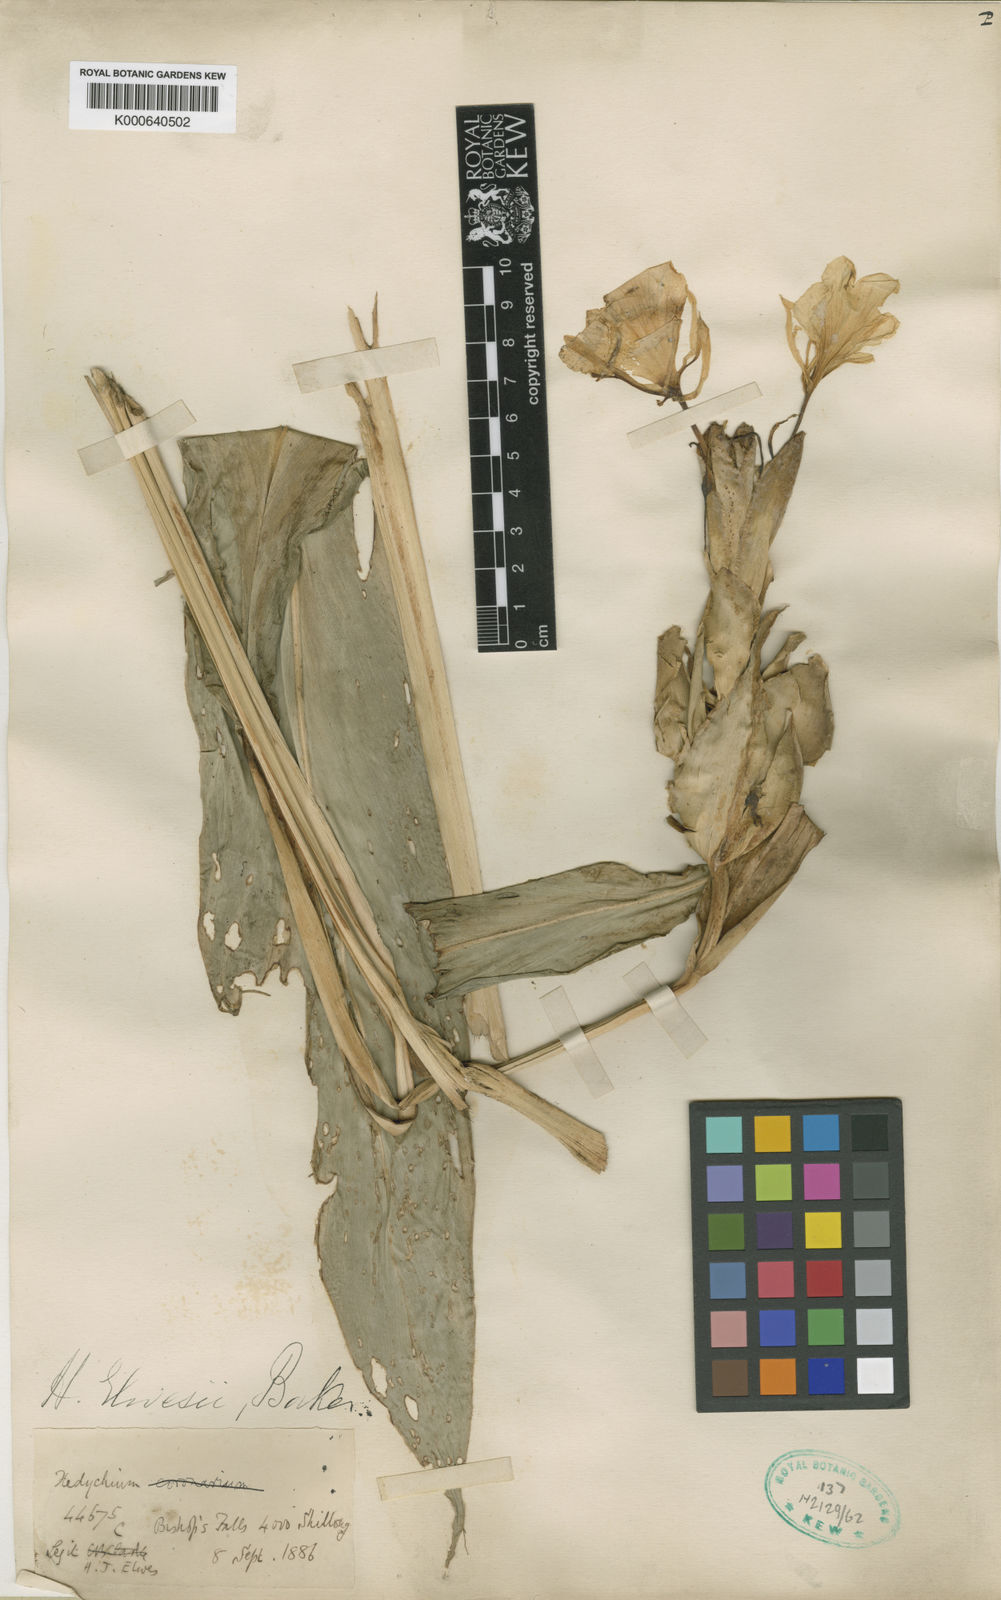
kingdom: Plantae
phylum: Tracheophyta
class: Liliopsida
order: Zingiberales
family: Zingiberaceae
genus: Hedychium
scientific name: Hedychium elwesii
